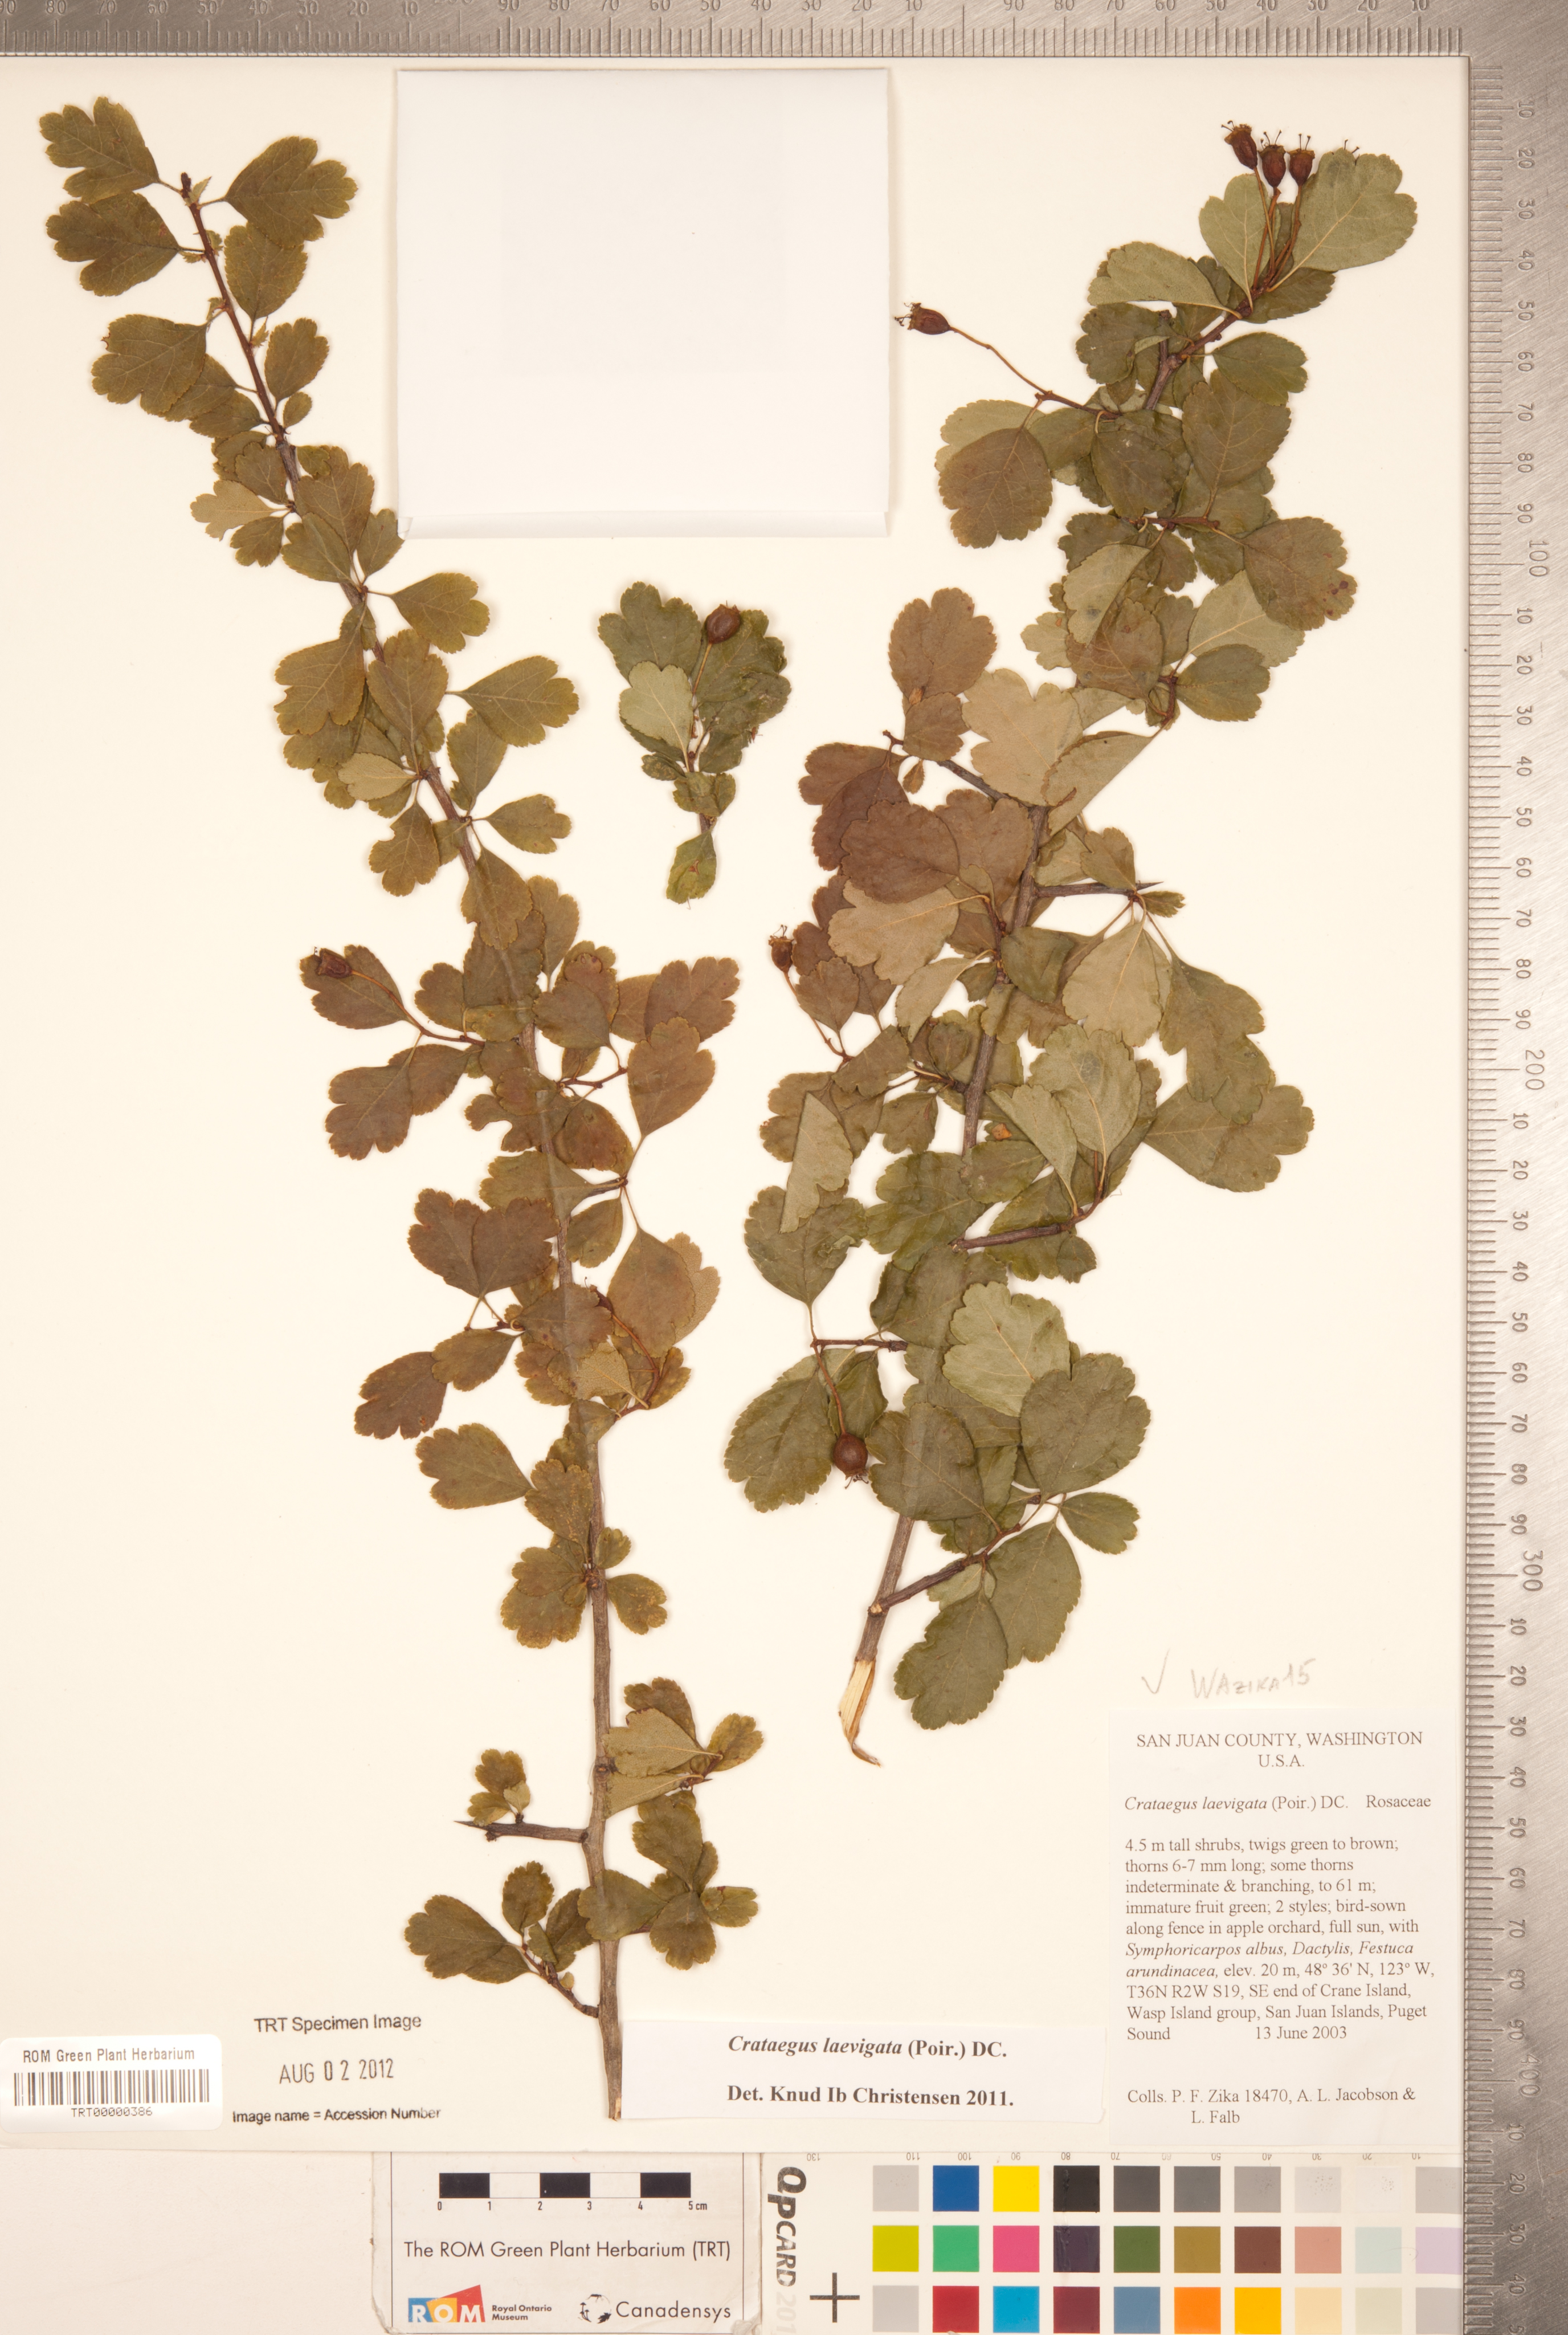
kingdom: Plantae
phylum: Tracheophyta
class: Magnoliopsida
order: Rosales
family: Rosaceae
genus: Crataegus
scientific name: Crataegus laevigata
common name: Midland hawthorn
